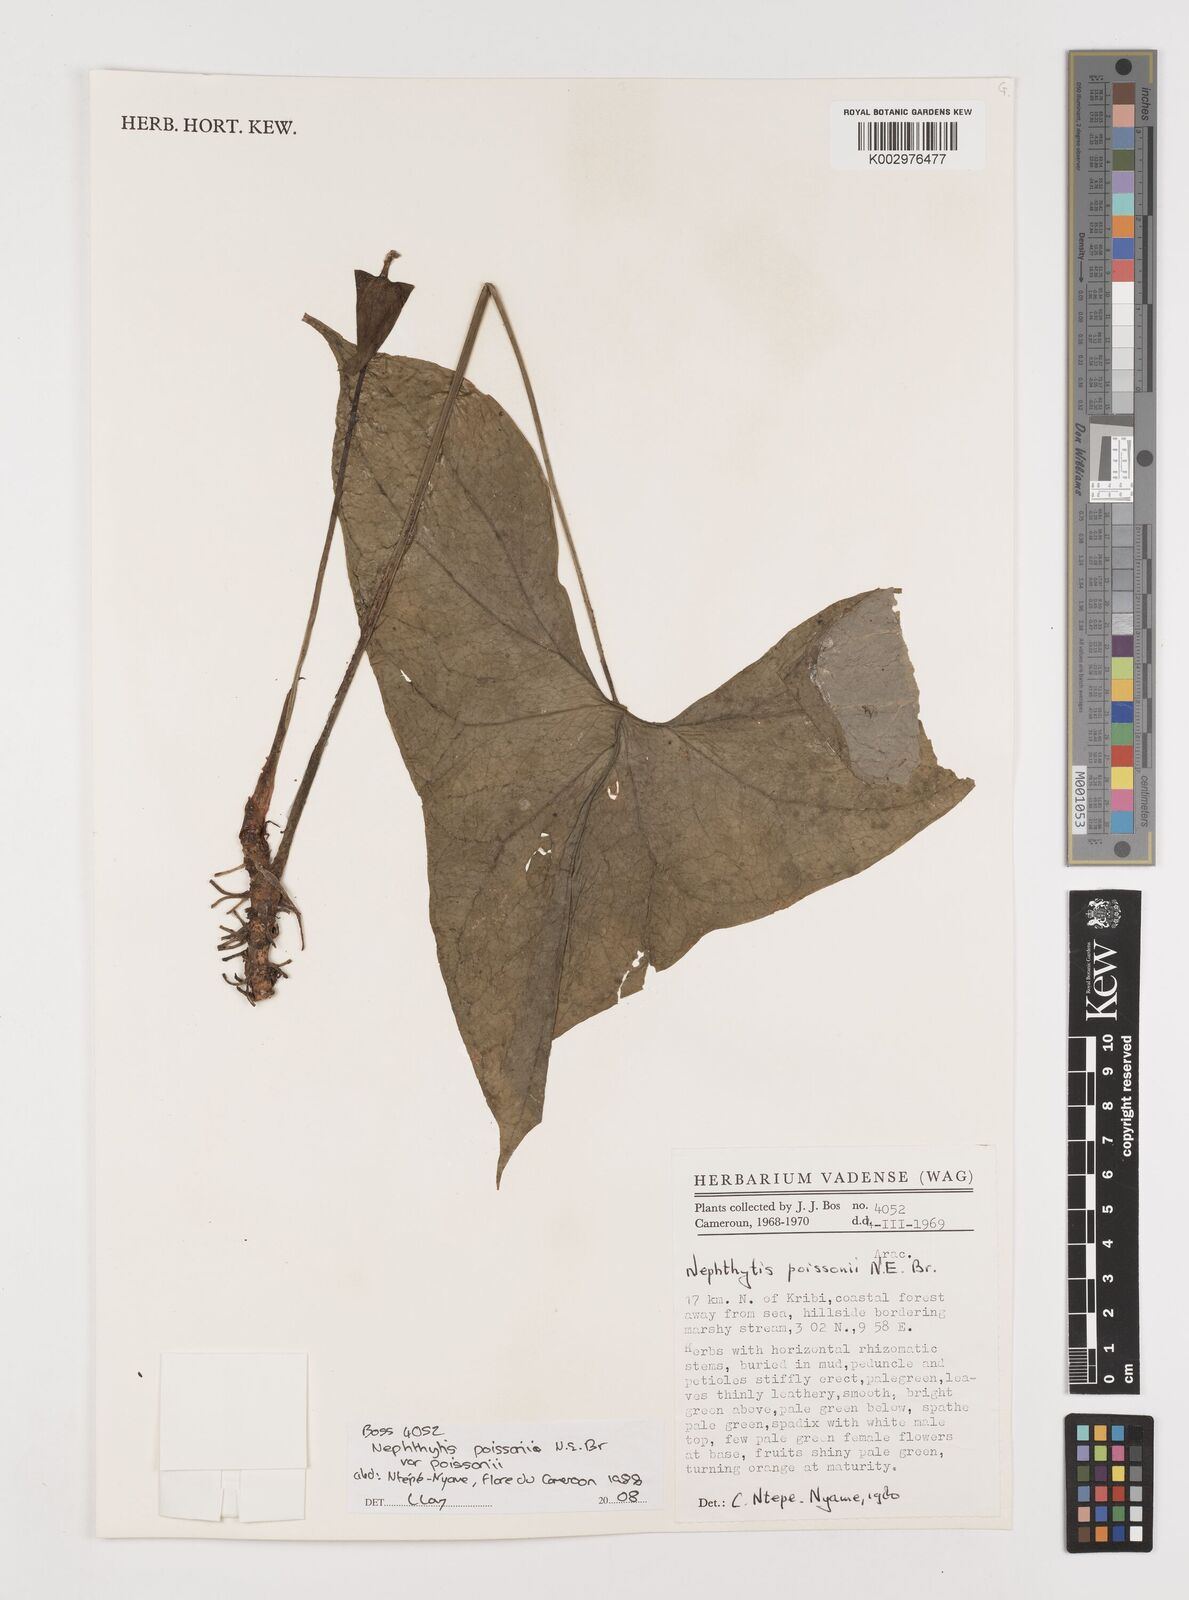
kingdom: Plantae
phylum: Tracheophyta
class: Liliopsida
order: Alismatales
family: Araceae
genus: Nephthytis
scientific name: Nephthytis poissonii
